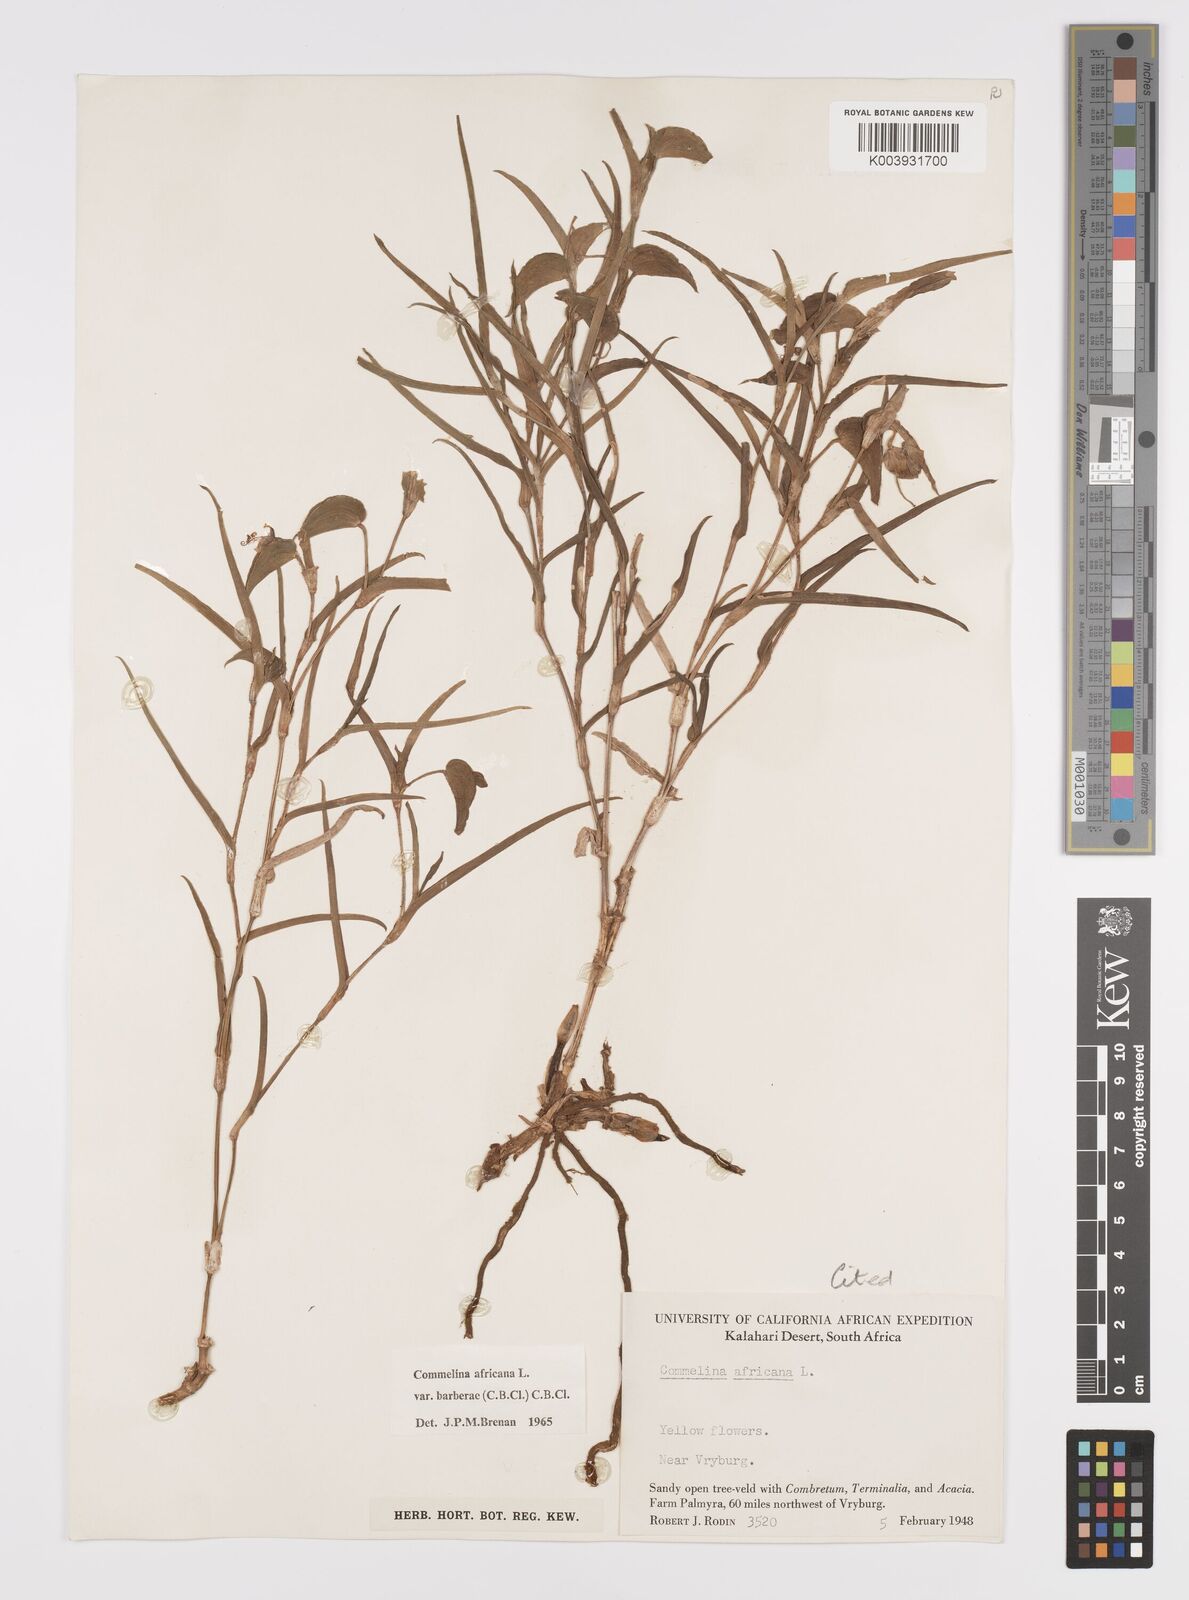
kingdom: Plantae
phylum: Tracheophyta
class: Liliopsida
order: Commelinales
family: Commelinaceae
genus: Commelina
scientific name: Commelina africana
